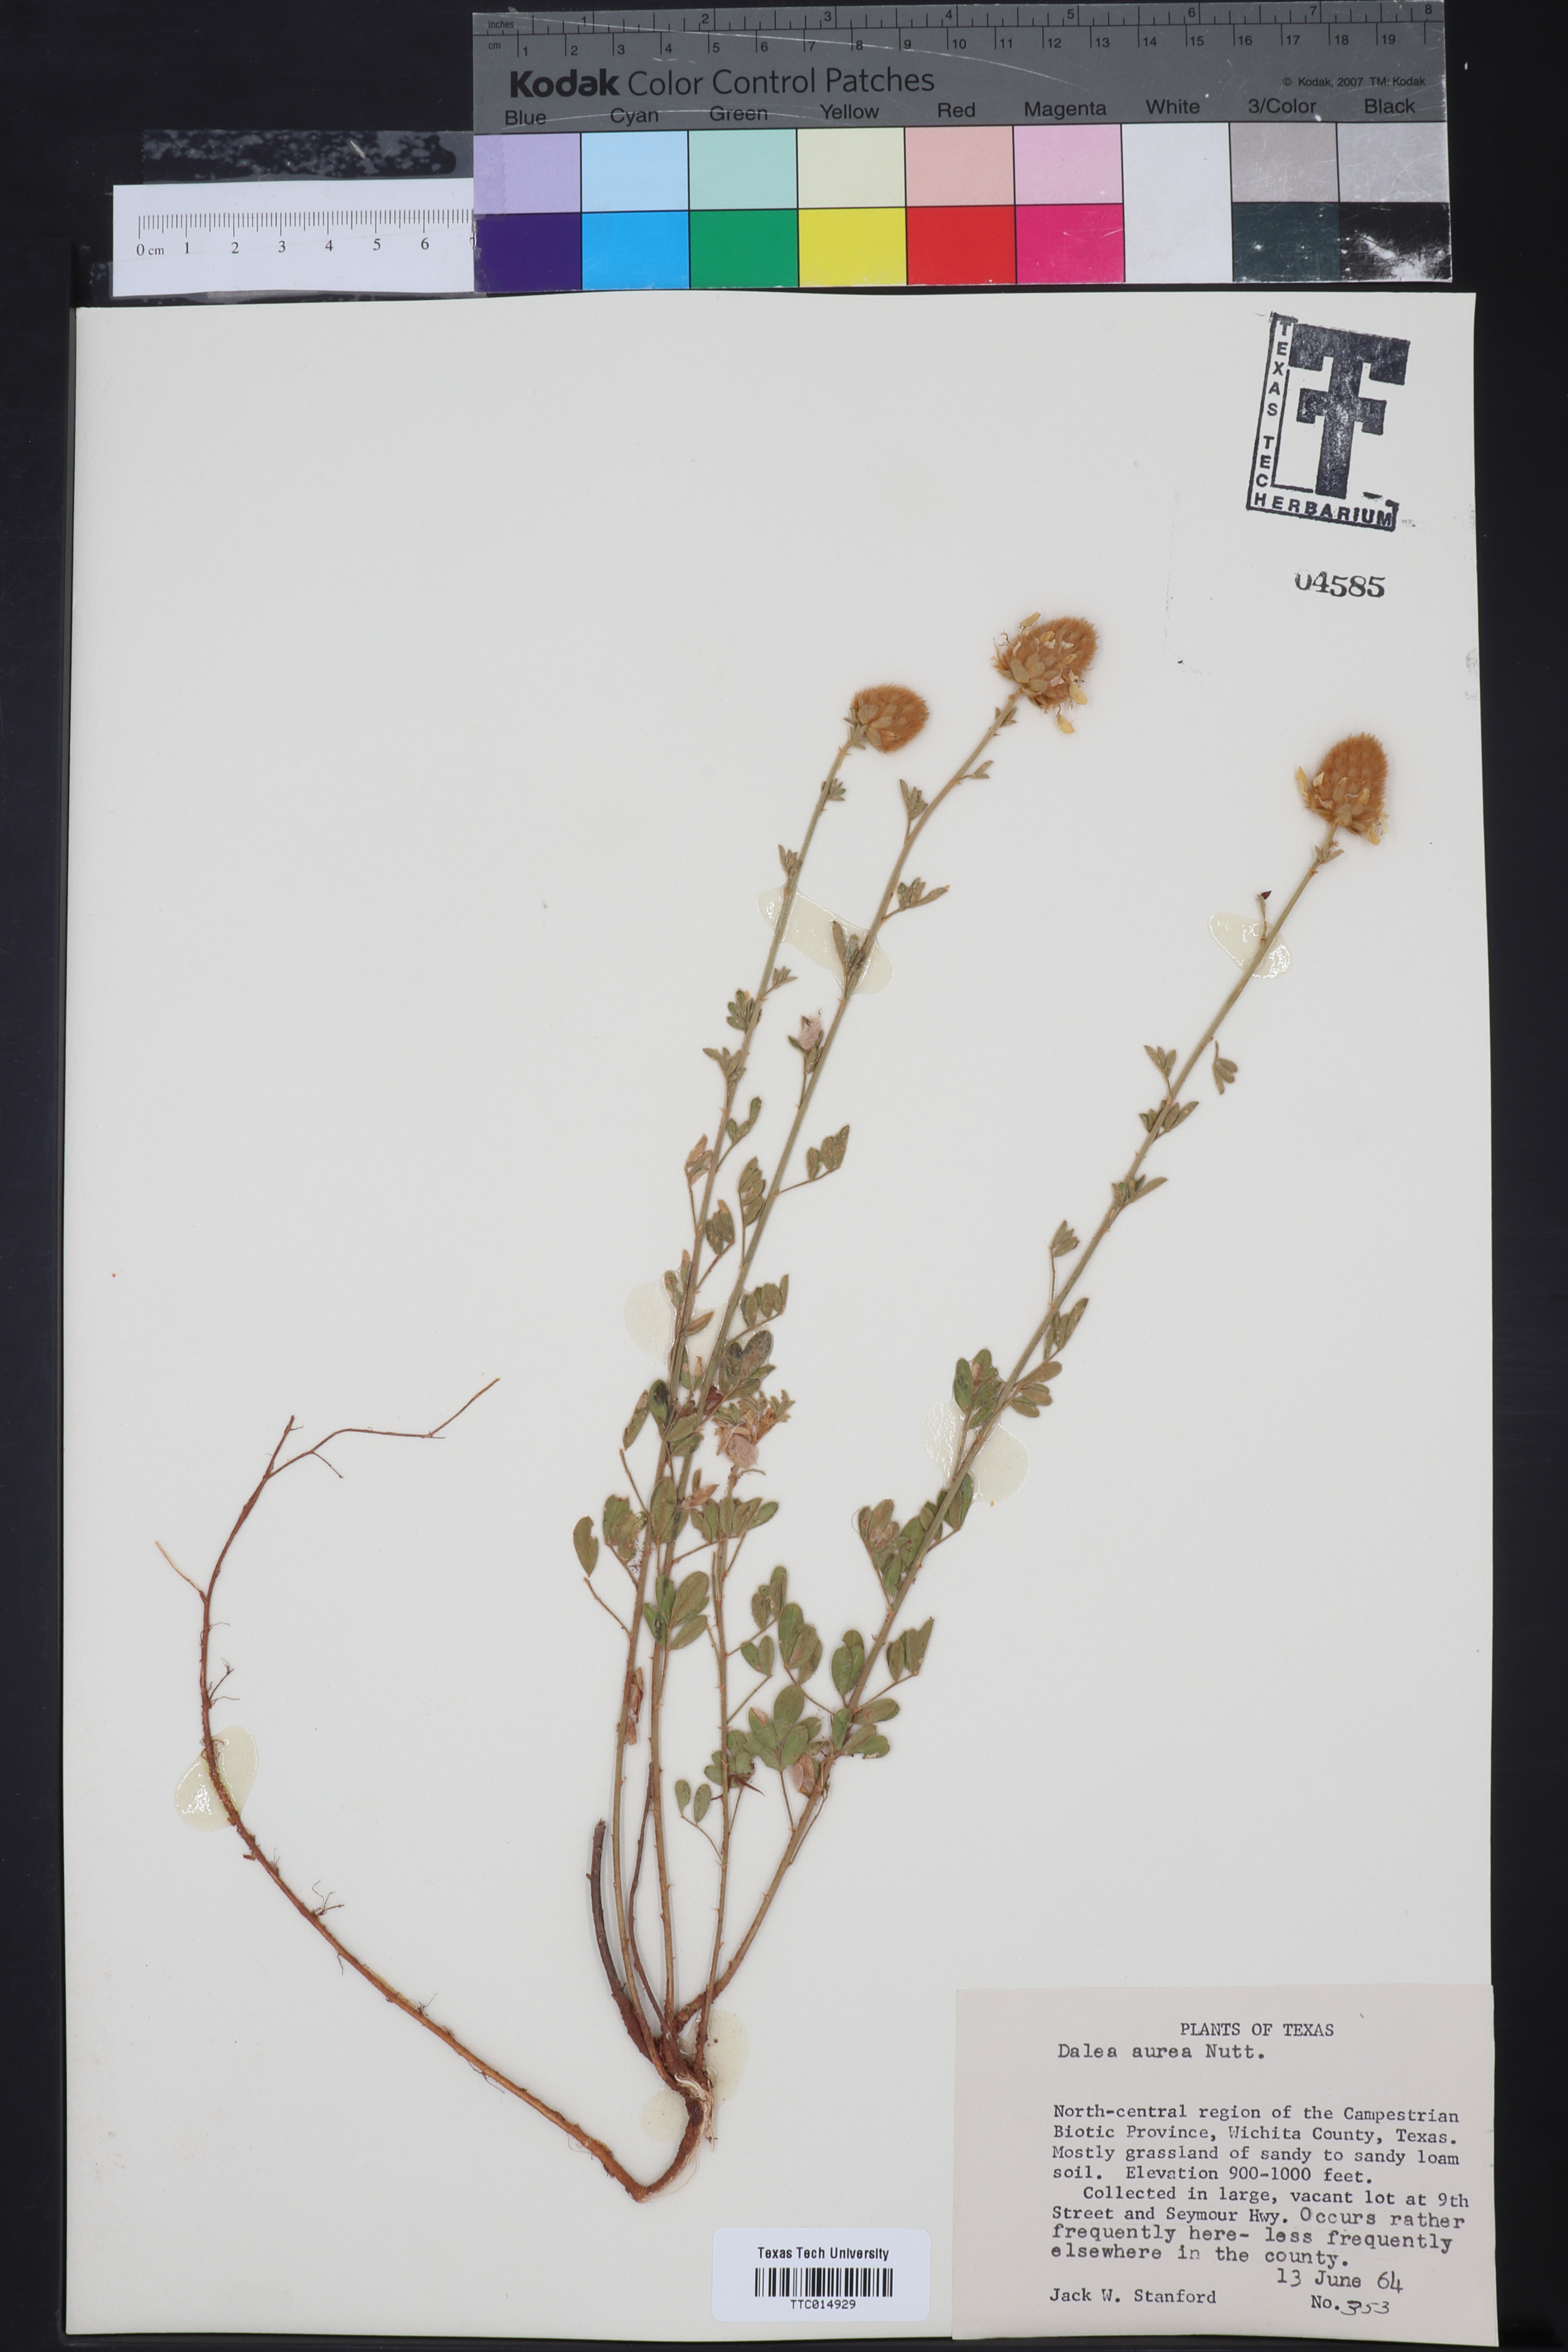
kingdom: Plantae
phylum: Tracheophyta
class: Magnoliopsida
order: Fabales
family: Fabaceae
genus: Dalea
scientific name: Dalea aurea
